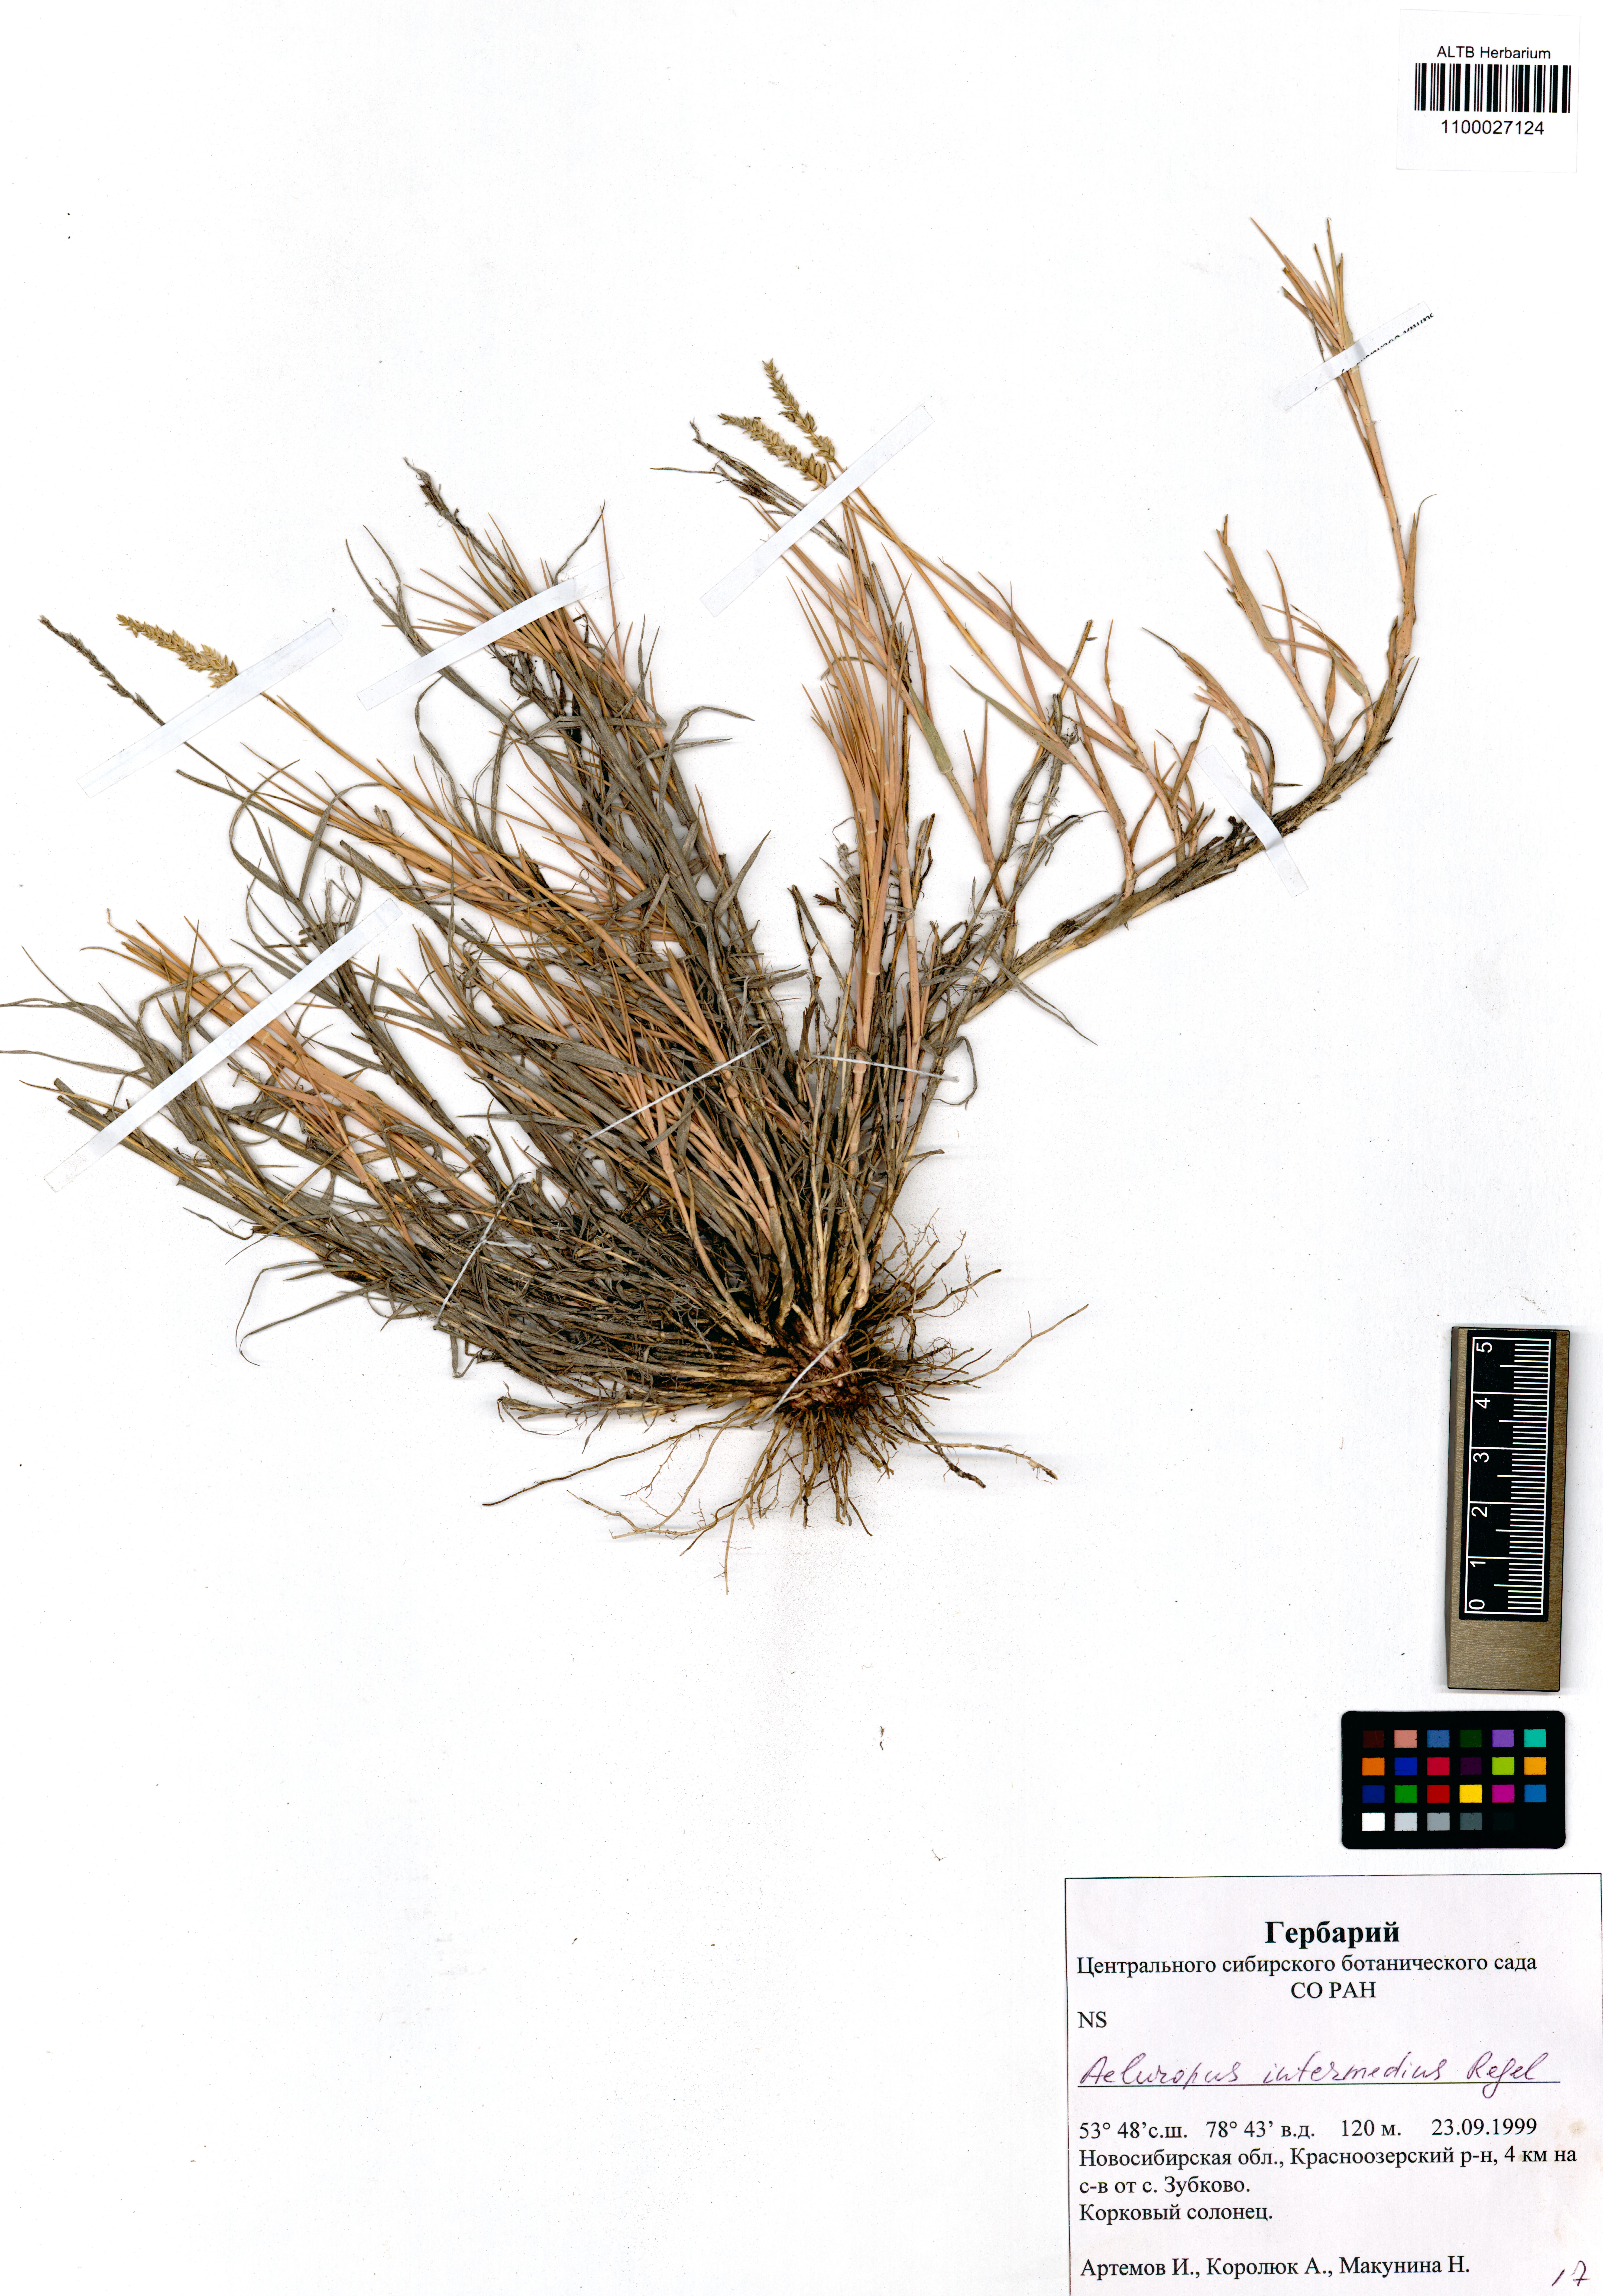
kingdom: Plantae
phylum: Tracheophyta
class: Liliopsida
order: Poales
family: Poaceae
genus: Aeluropus
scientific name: Aeluropus littoralis
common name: Indian walnut
